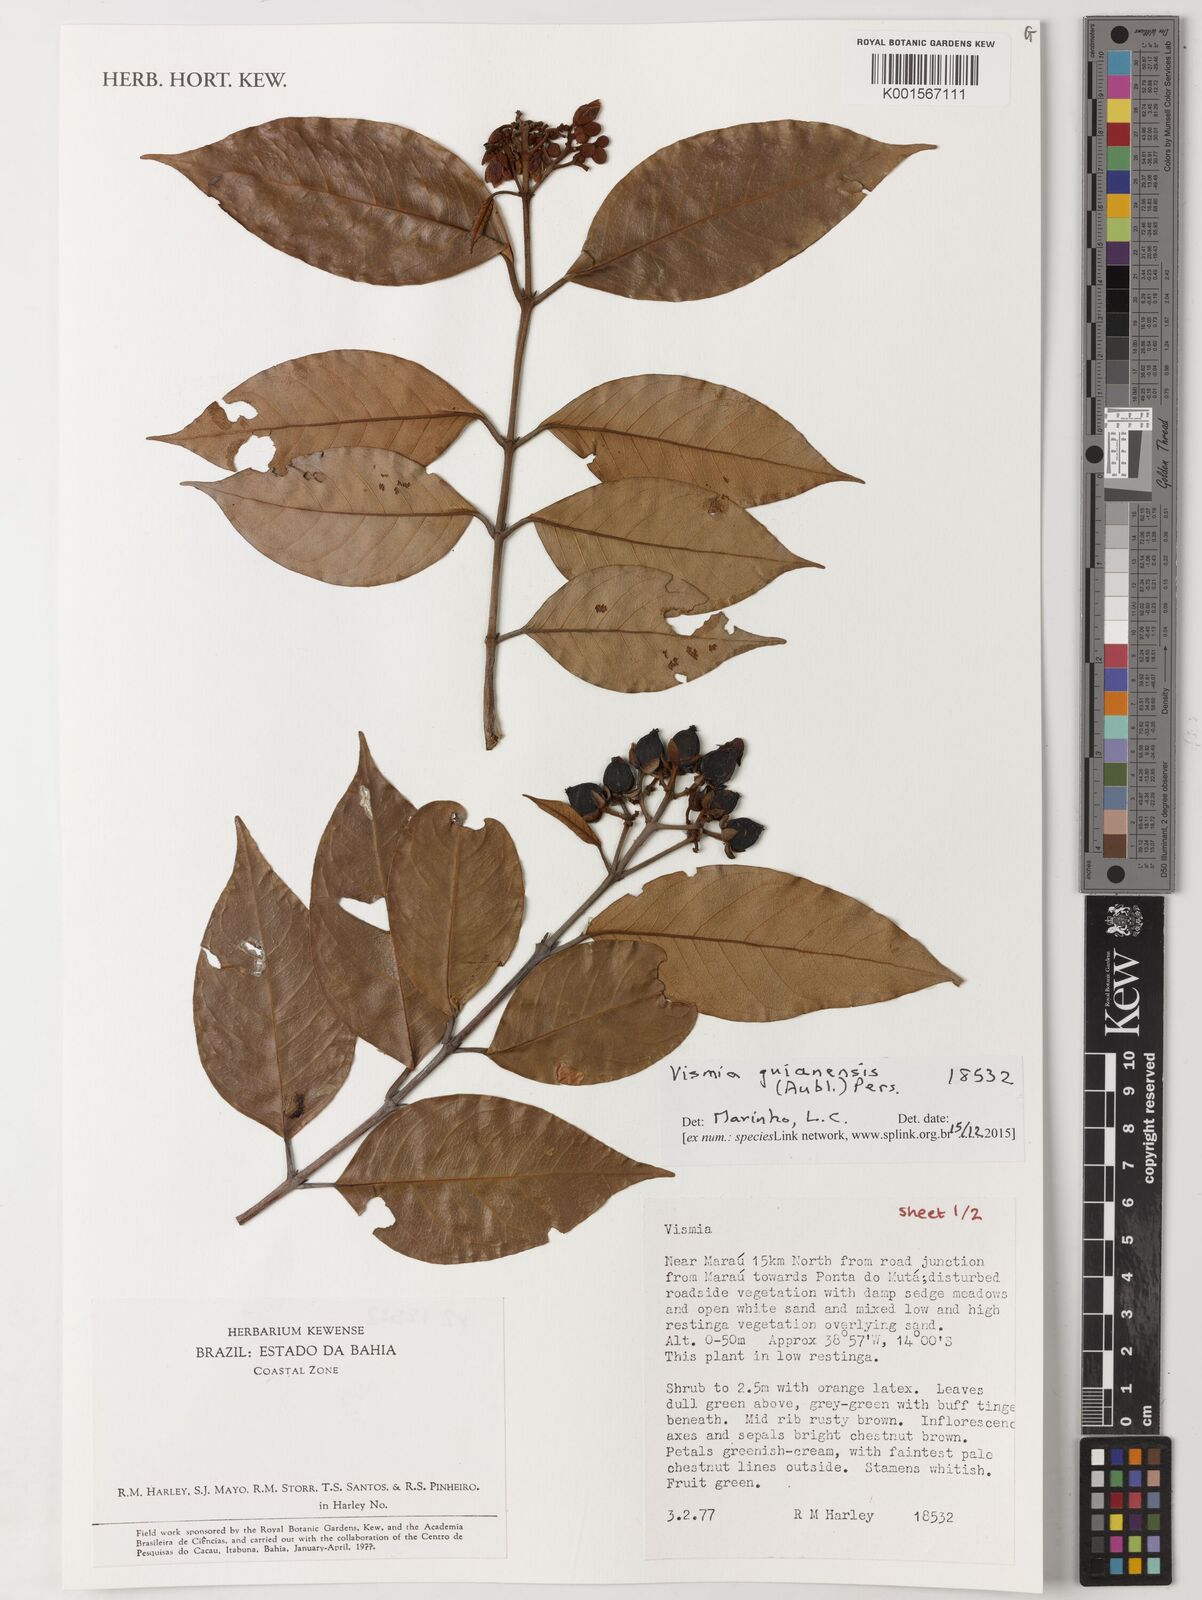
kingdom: Plantae
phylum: Tracheophyta
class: Magnoliopsida
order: Malpighiales
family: Hypericaceae
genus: Vismia
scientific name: Vismia guianensis
